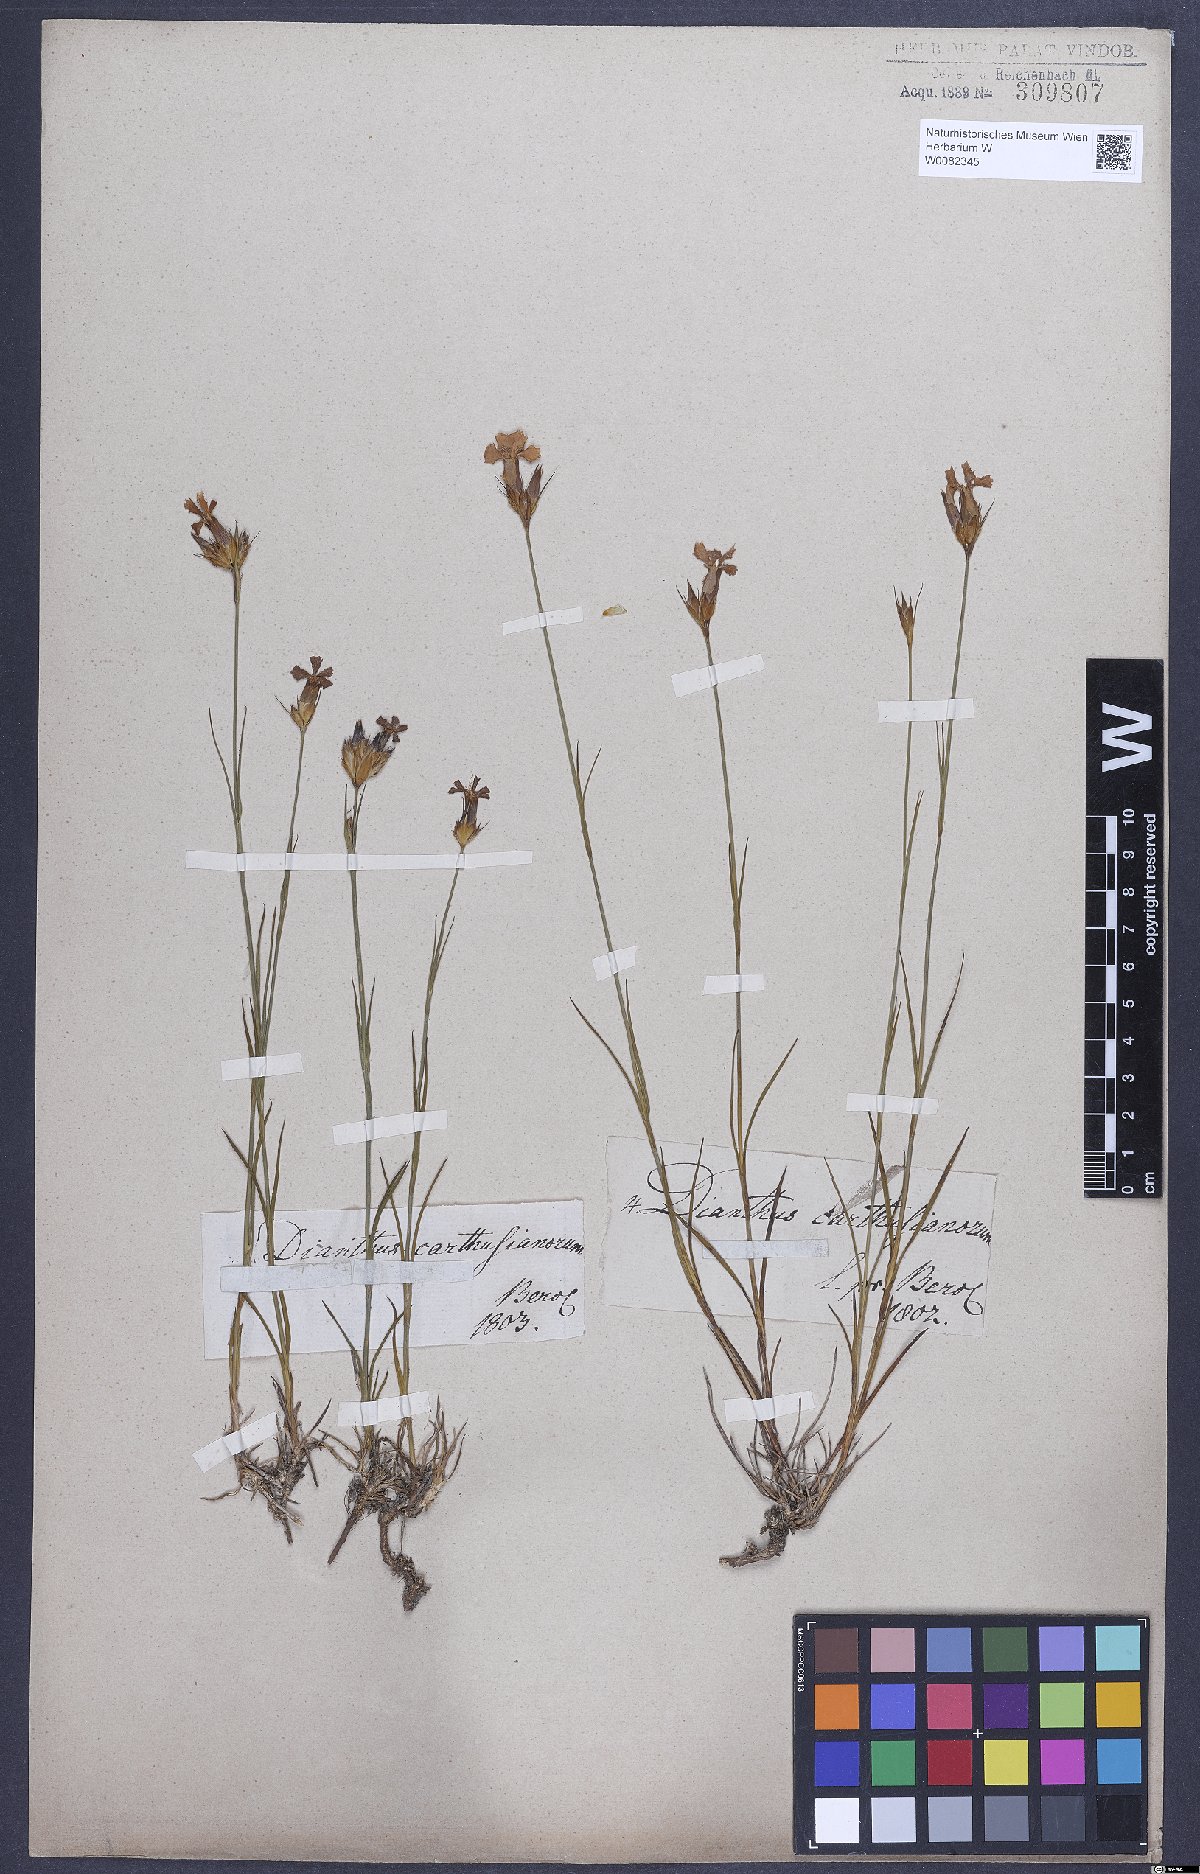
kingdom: Plantae
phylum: Tracheophyta
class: Magnoliopsida
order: Caryophyllales
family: Caryophyllaceae
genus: Dianthus
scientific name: Dianthus carthusianorum
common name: Carthusian pink
